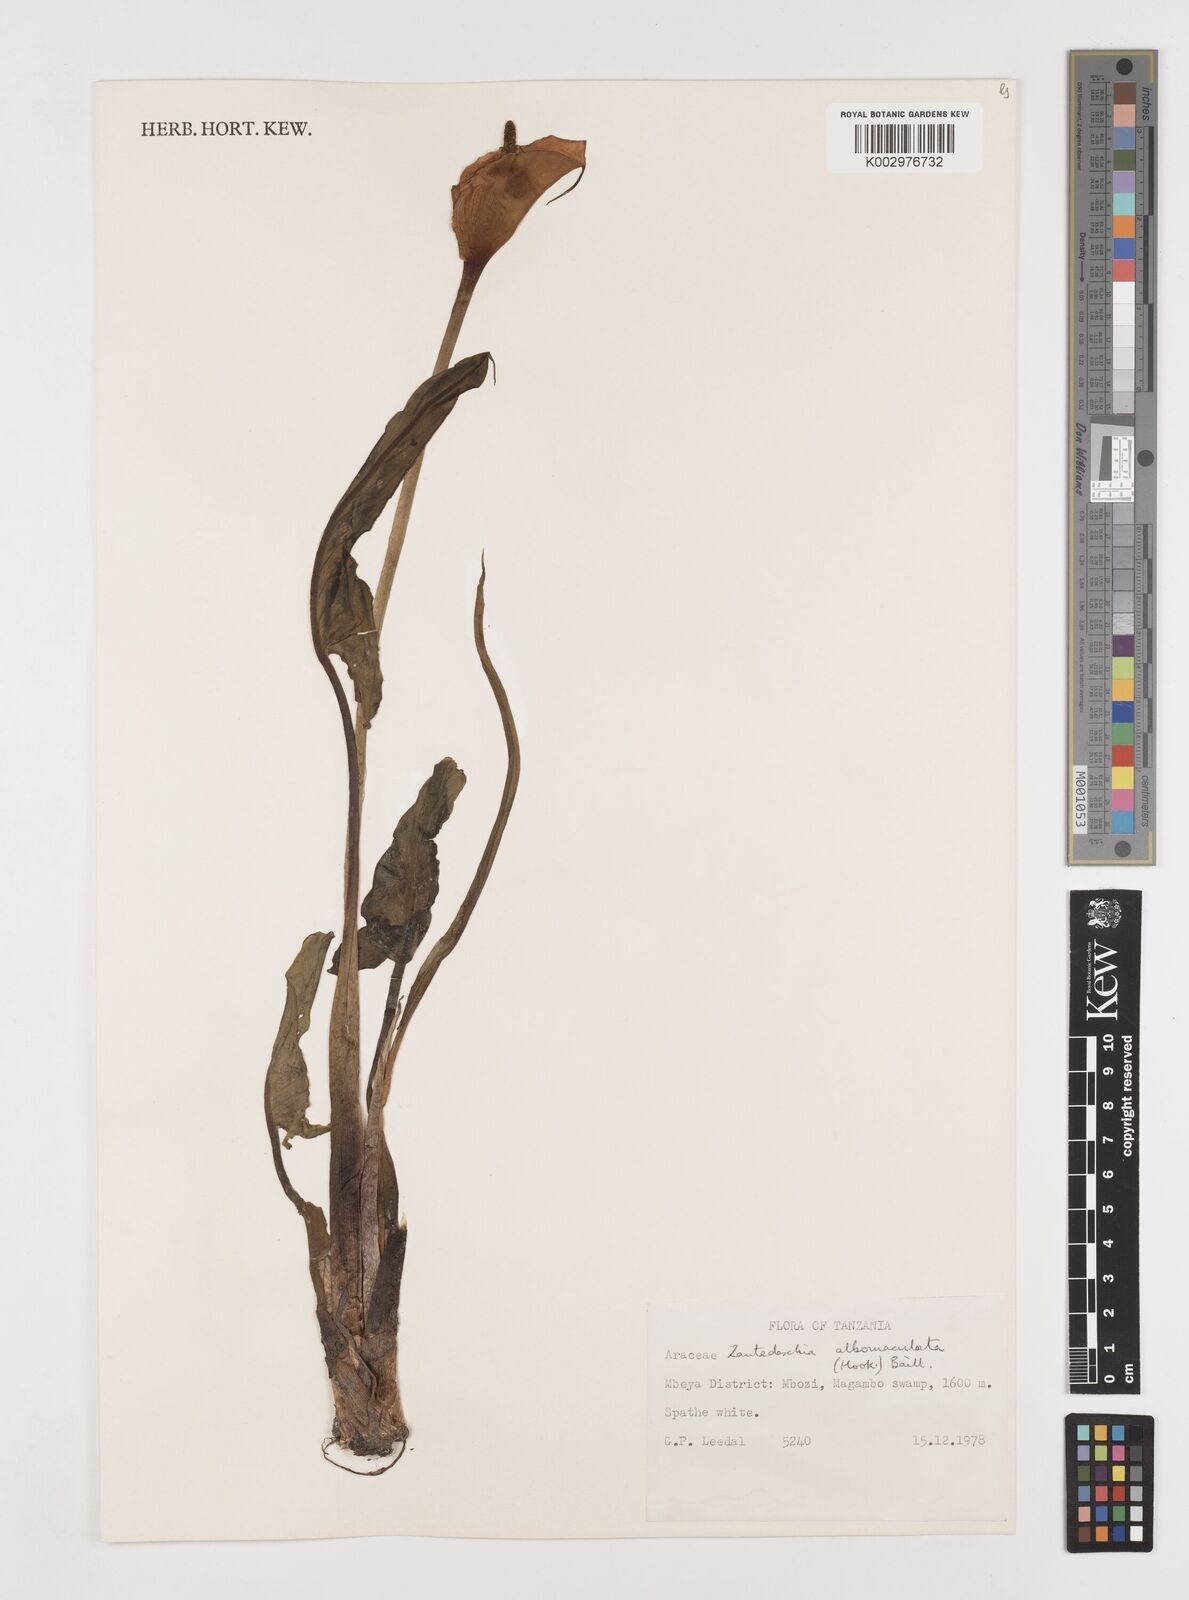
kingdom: Plantae
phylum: Tracheophyta
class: Liliopsida
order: Alismatales
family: Araceae
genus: Zantedeschia
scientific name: Zantedeschia albomaculata
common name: Spotted calla lily
